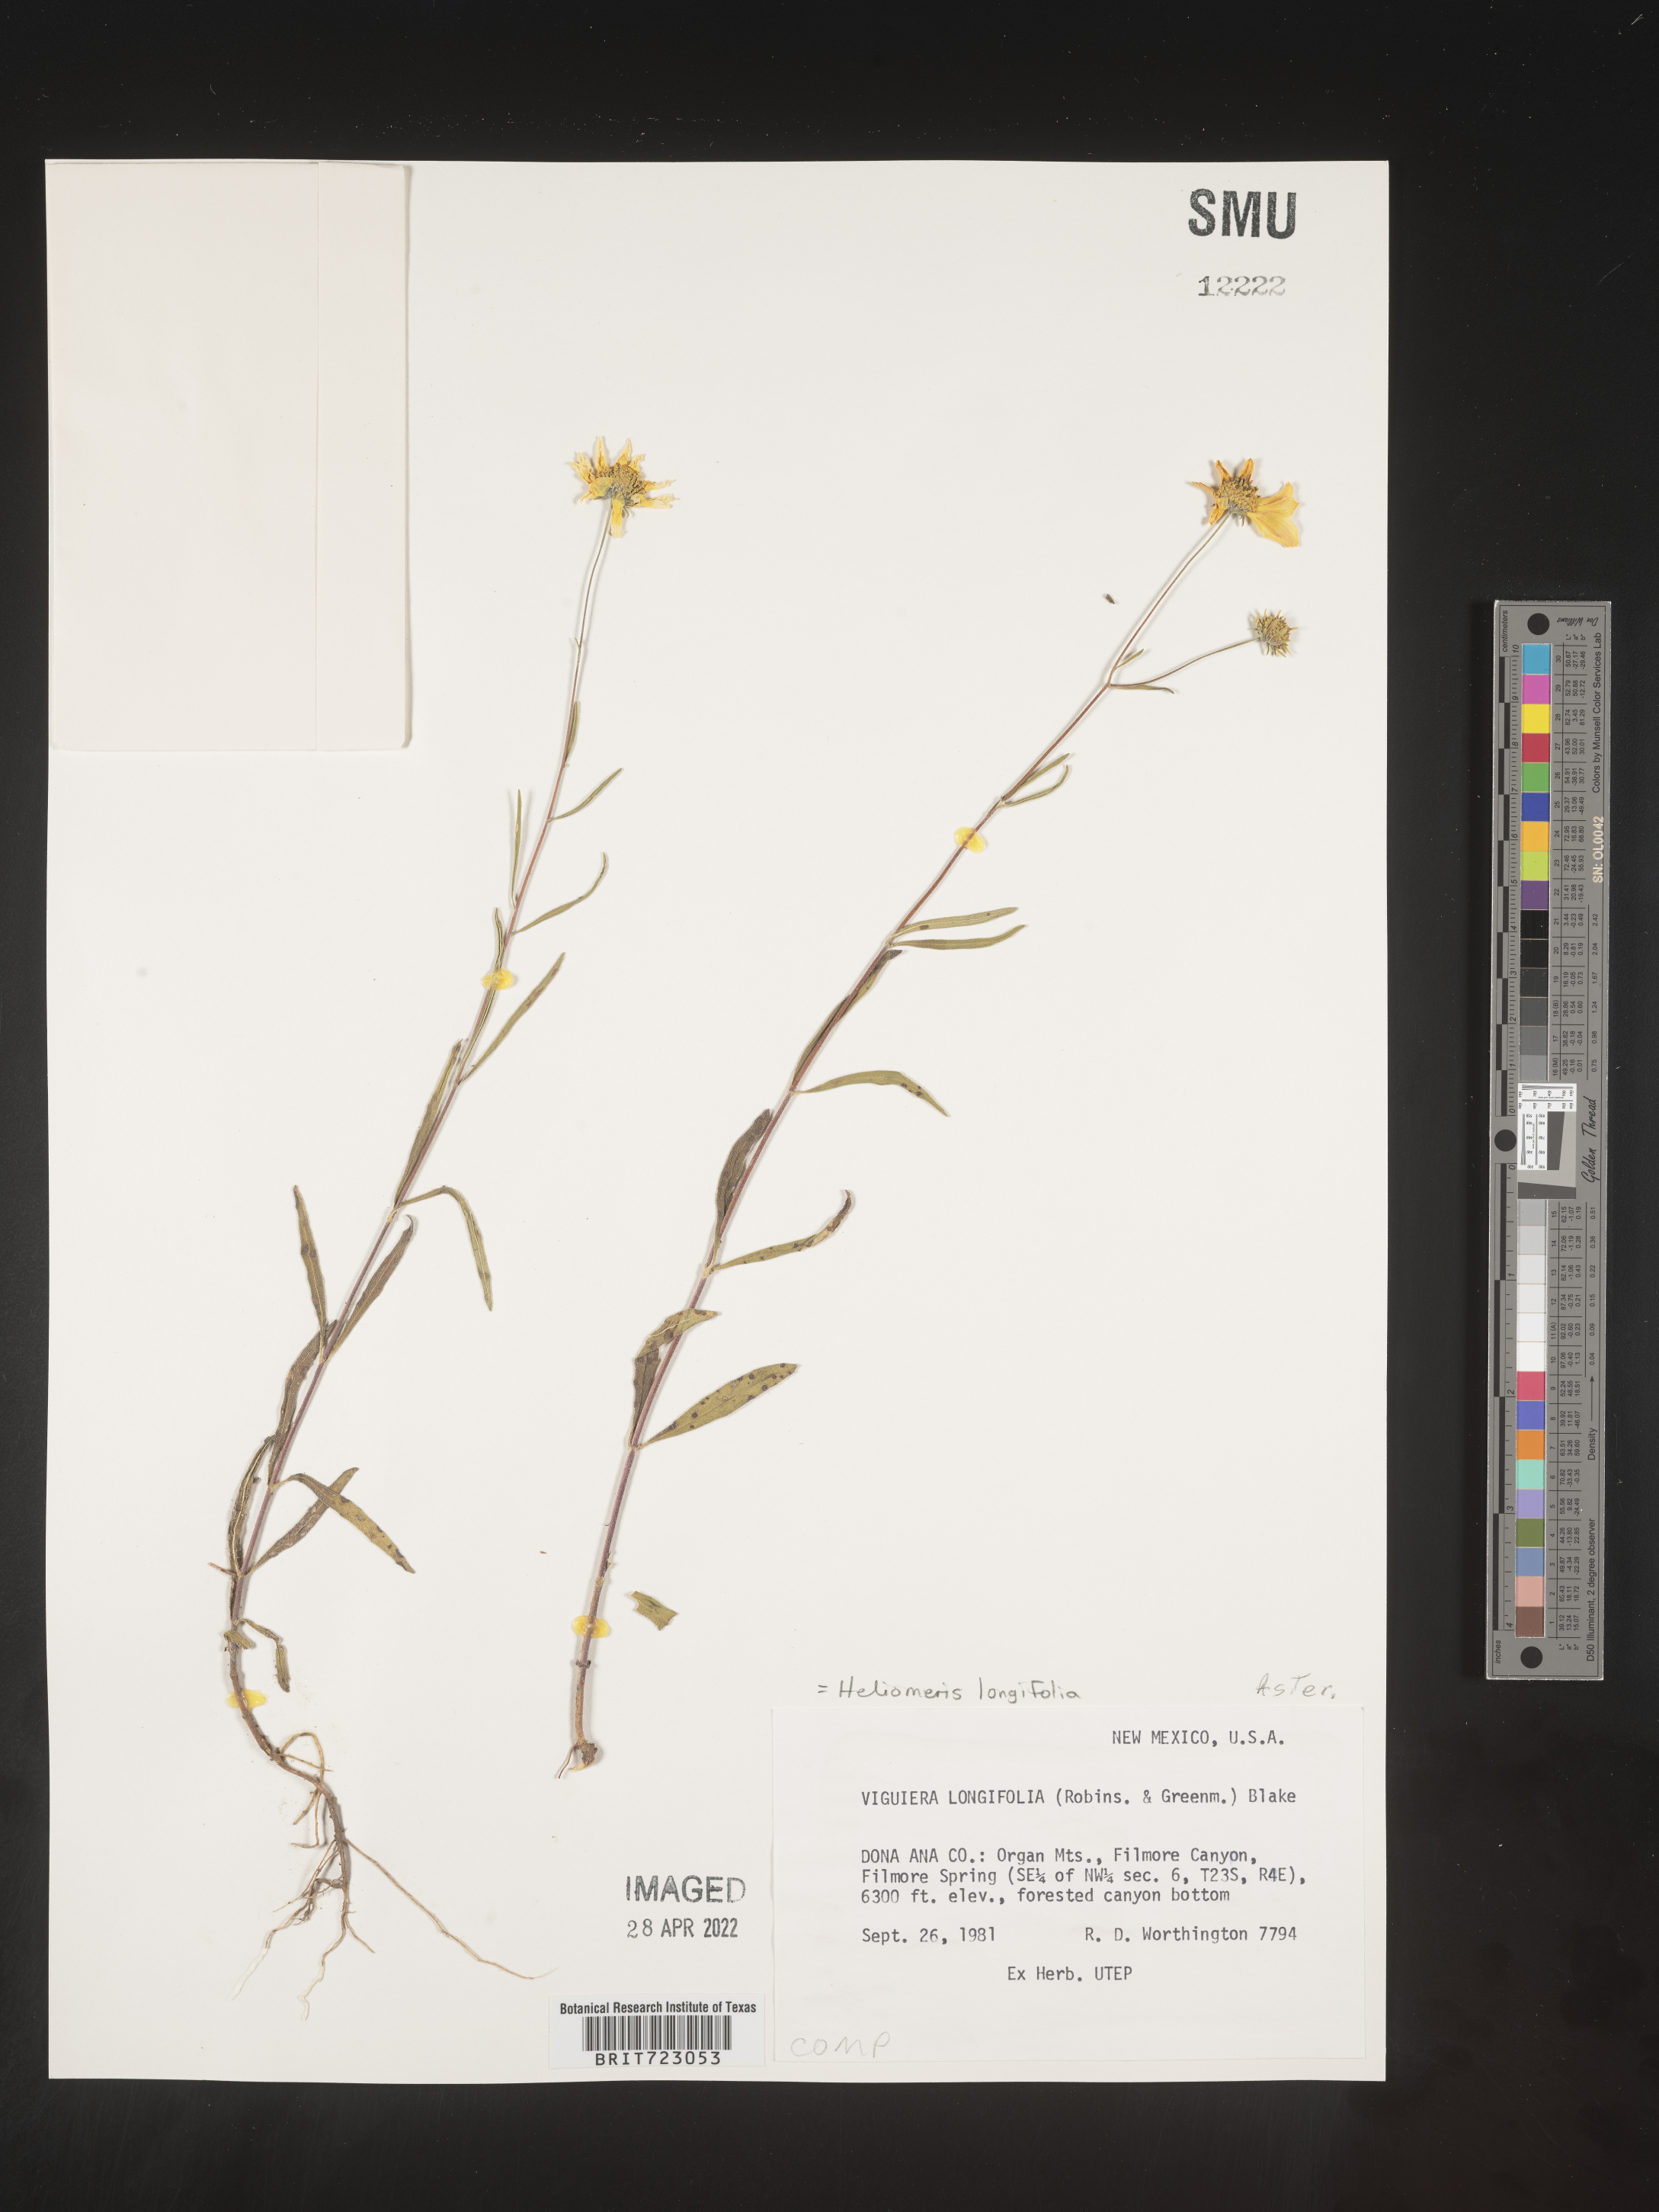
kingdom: Plantae
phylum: Tracheophyta
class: Magnoliopsida
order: Asterales
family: Asteraceae
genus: Heliomeris
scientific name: Heliomeris longifolia
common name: Longleaf false goldeneye
